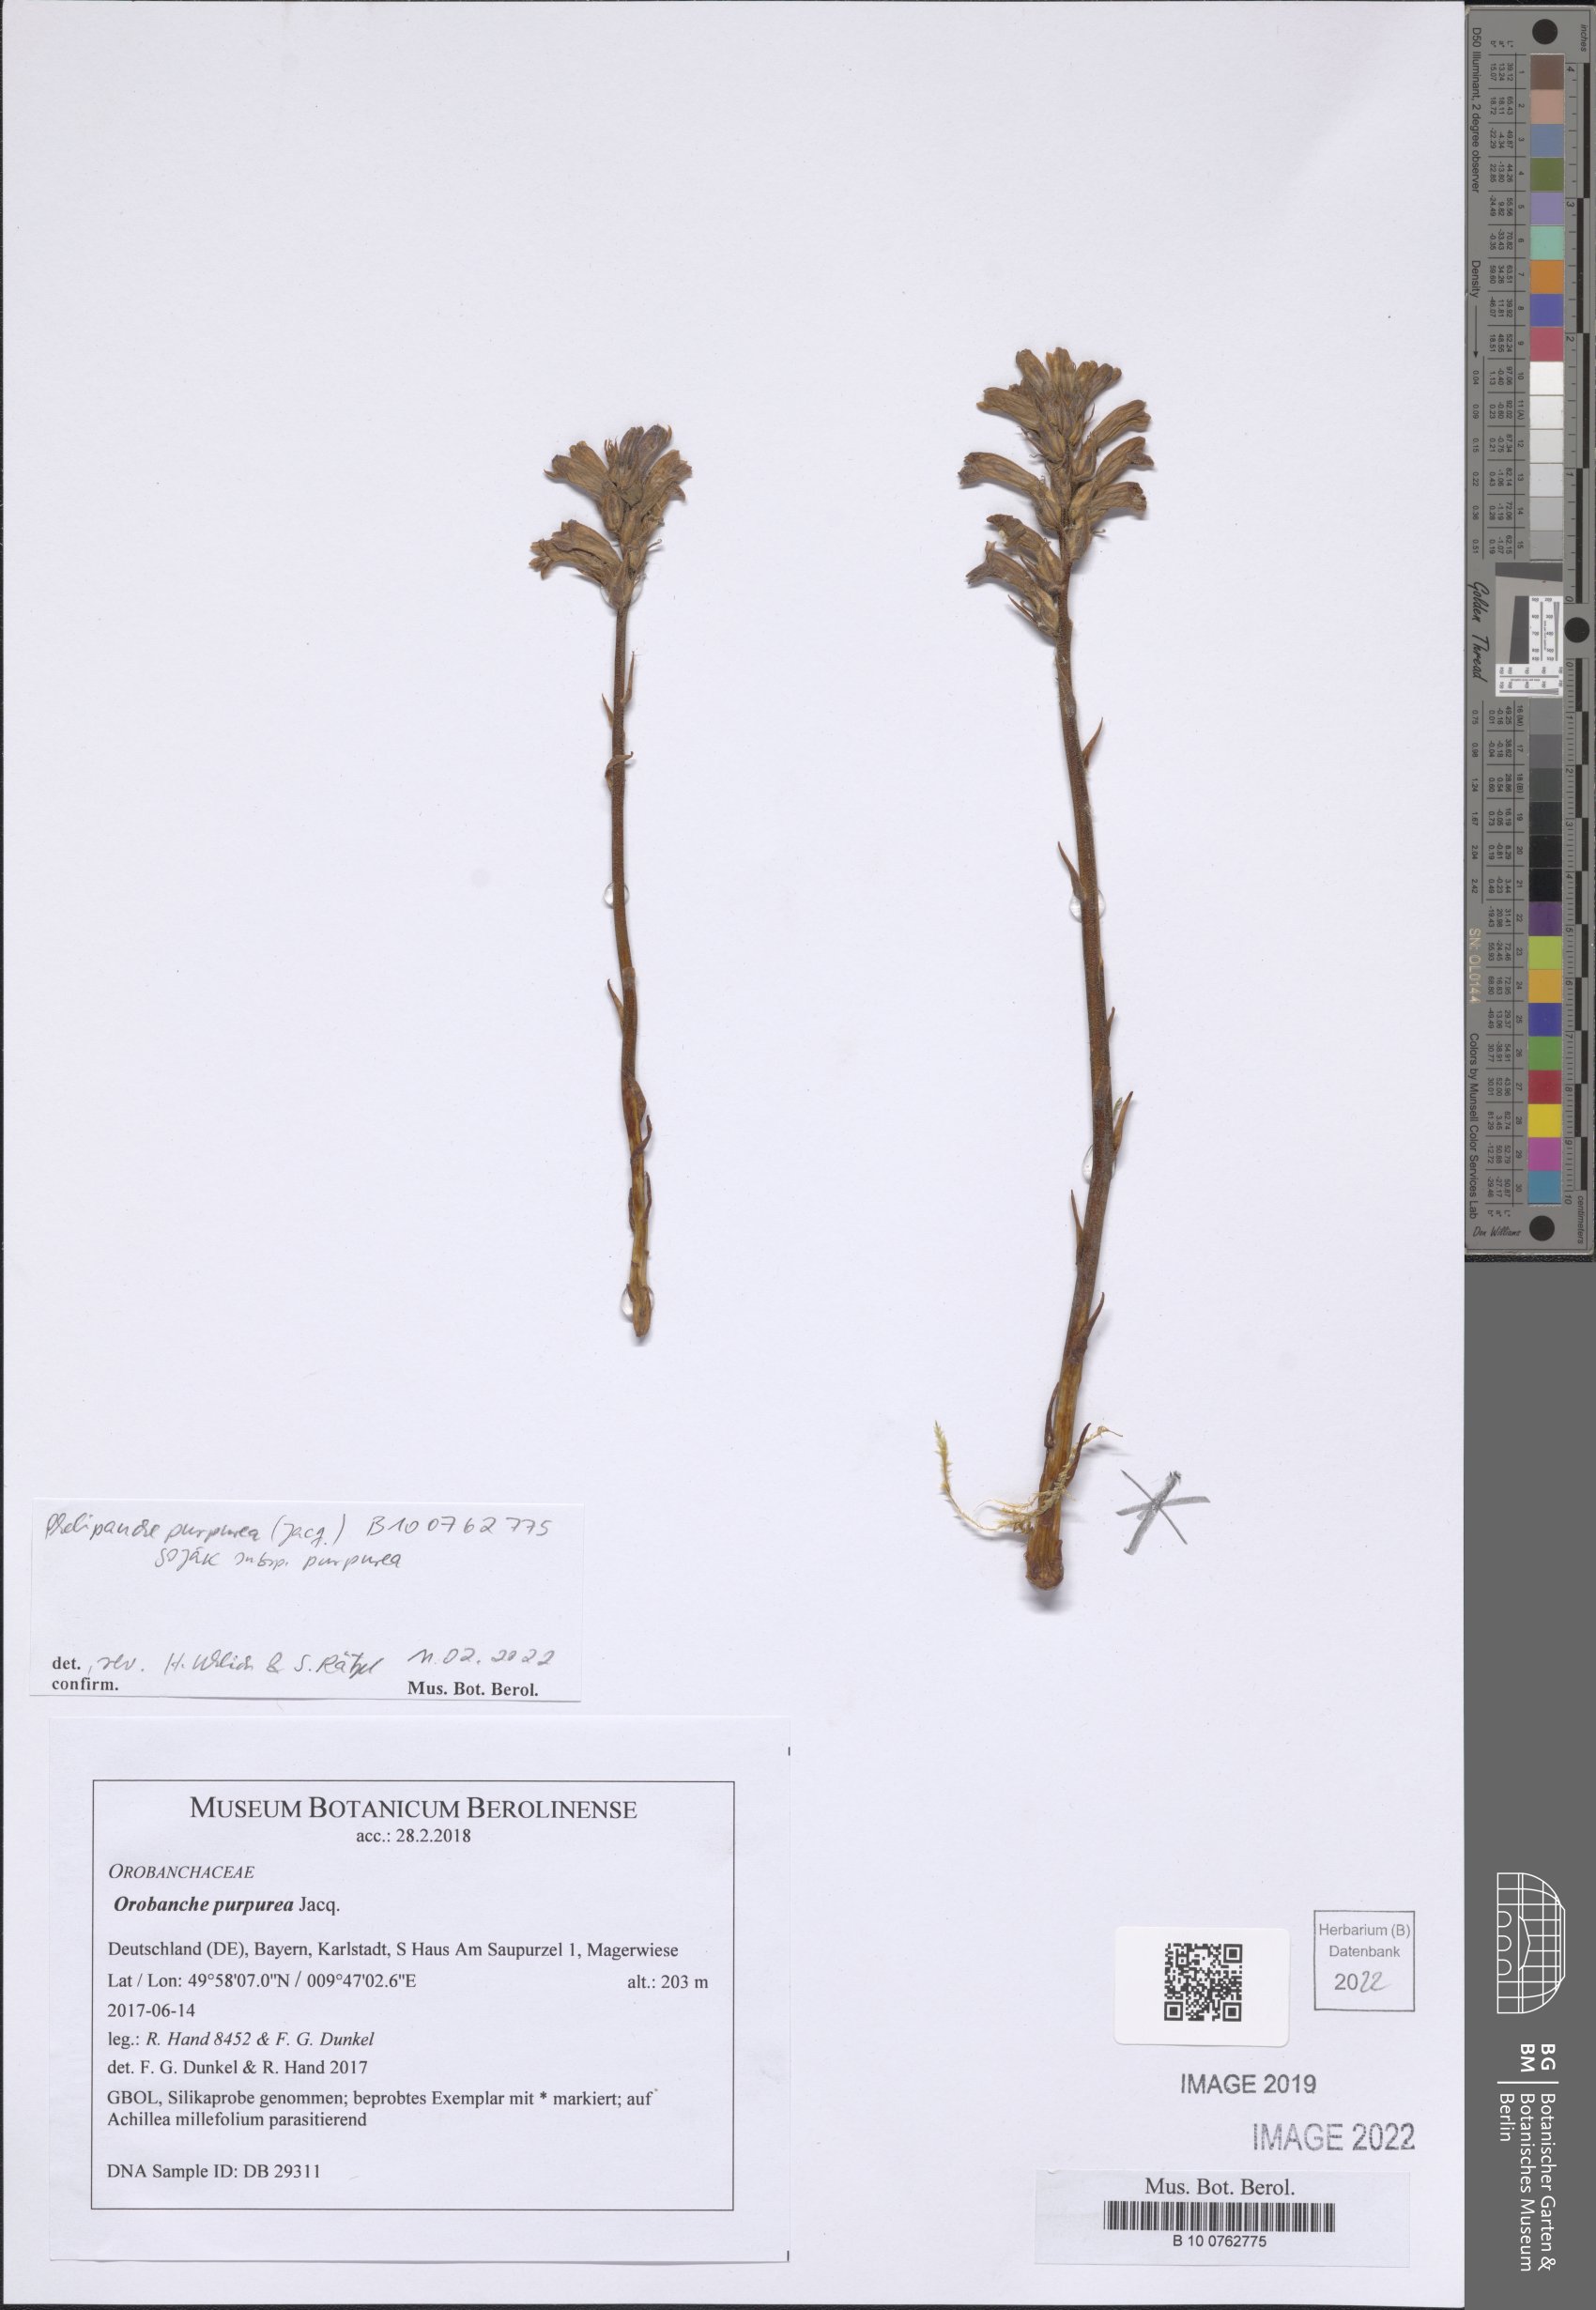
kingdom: Plantae
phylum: Tracheophyta
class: Magnoliopsida
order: Lamiales
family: Orobanchaceae
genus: Phelipanche
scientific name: Phelipanche purpurea
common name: Purple broomrape
